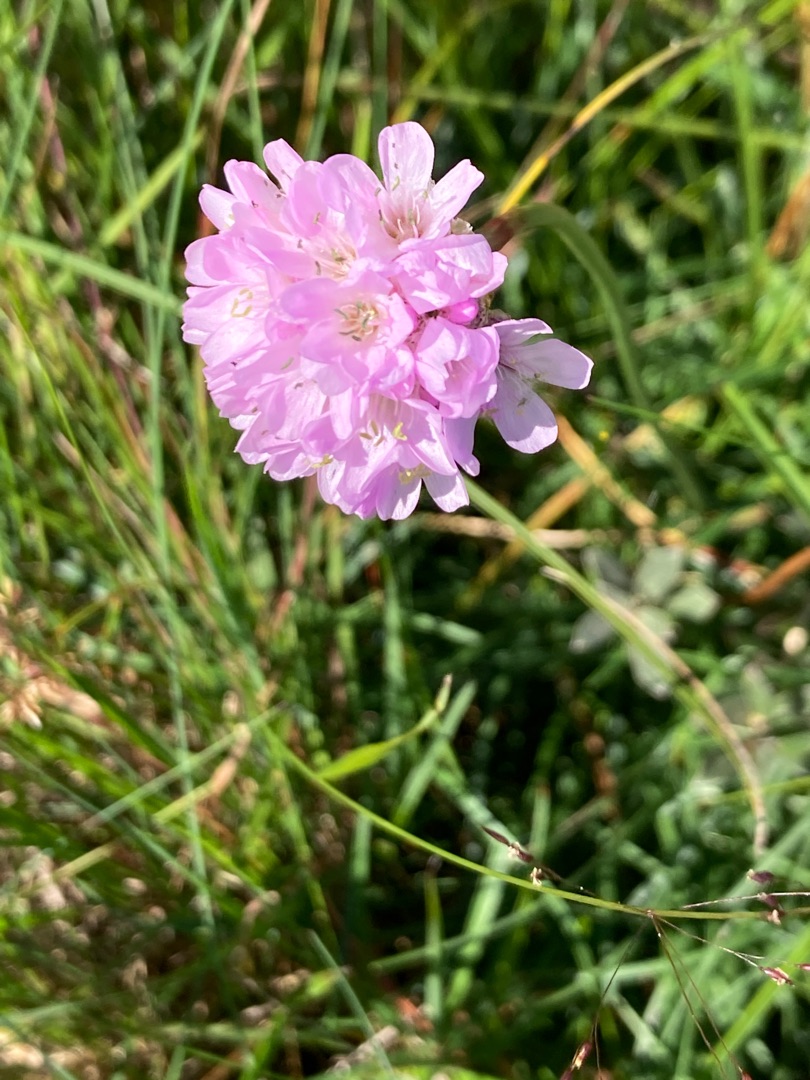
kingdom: Plantae
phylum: Tracheophyta
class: Magnoliopsida
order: Caryophyllales
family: Plumbaginaceae
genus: Armeria
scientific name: Armeria maritima
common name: Engelskgræs
